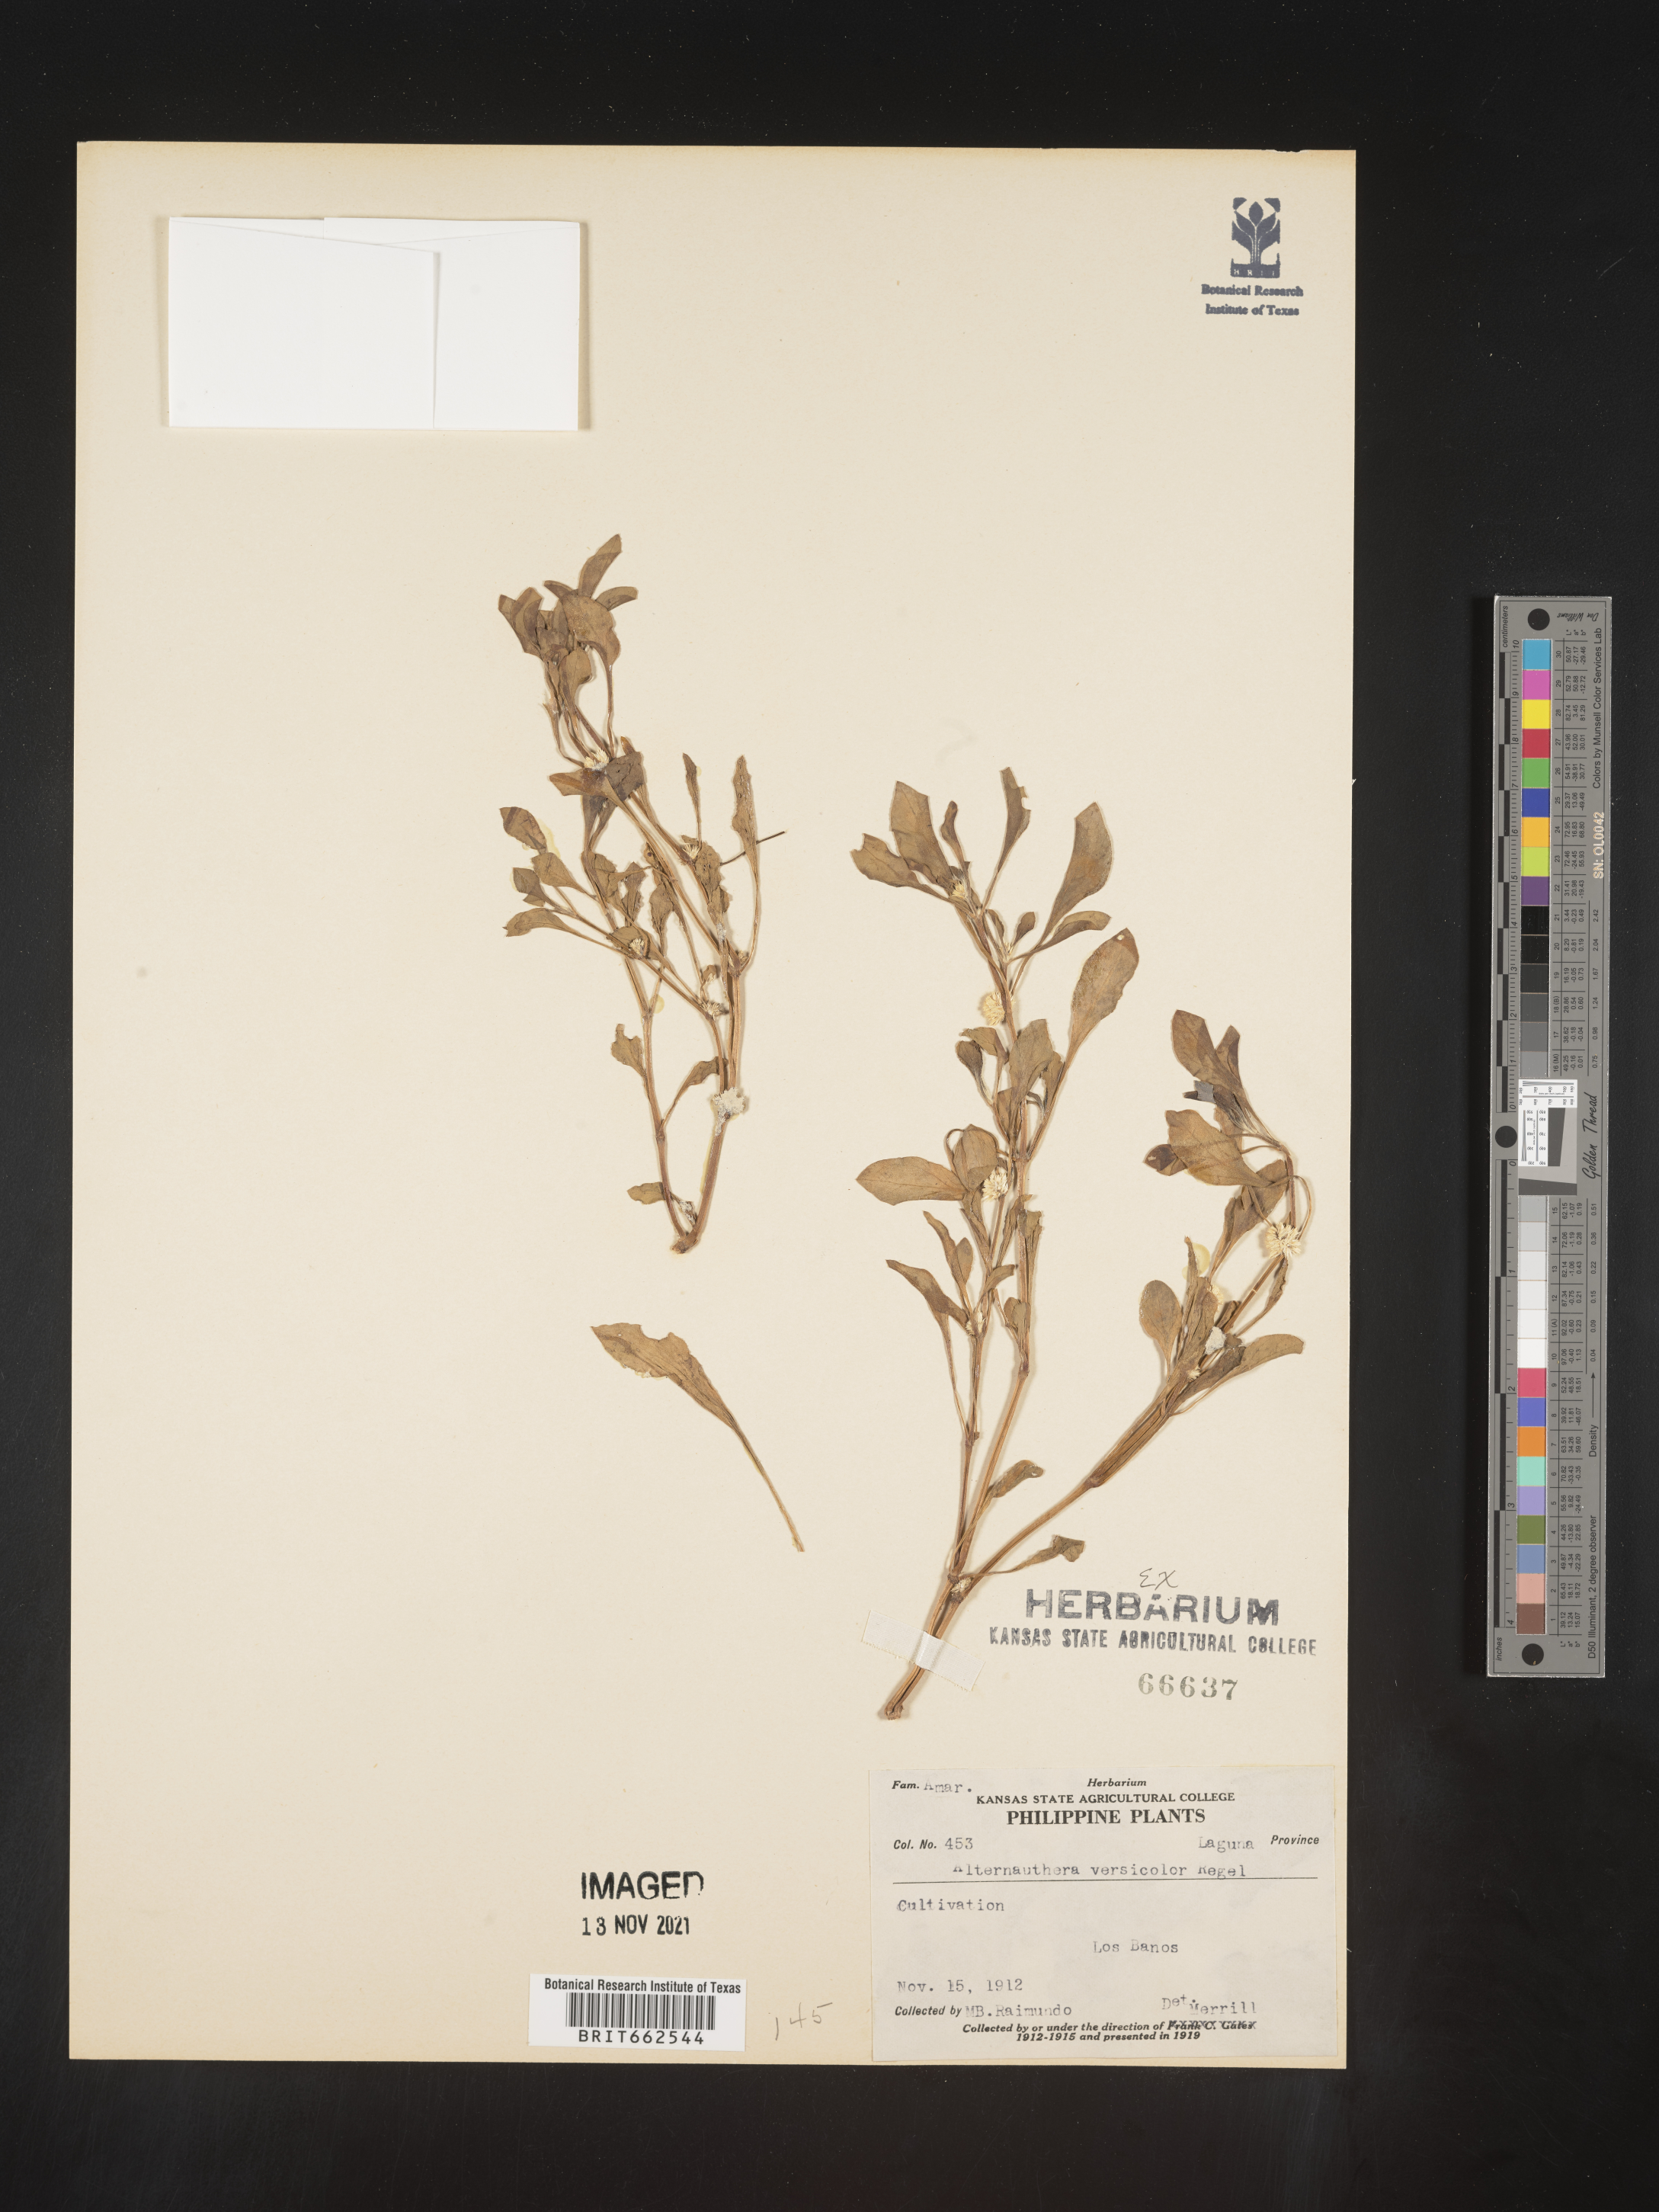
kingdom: Plantae
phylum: Tracheophyta
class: Magnoliopsida
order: Caryophyllales
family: Amaranthaceae
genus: Alternanthera
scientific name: Alternanthera
